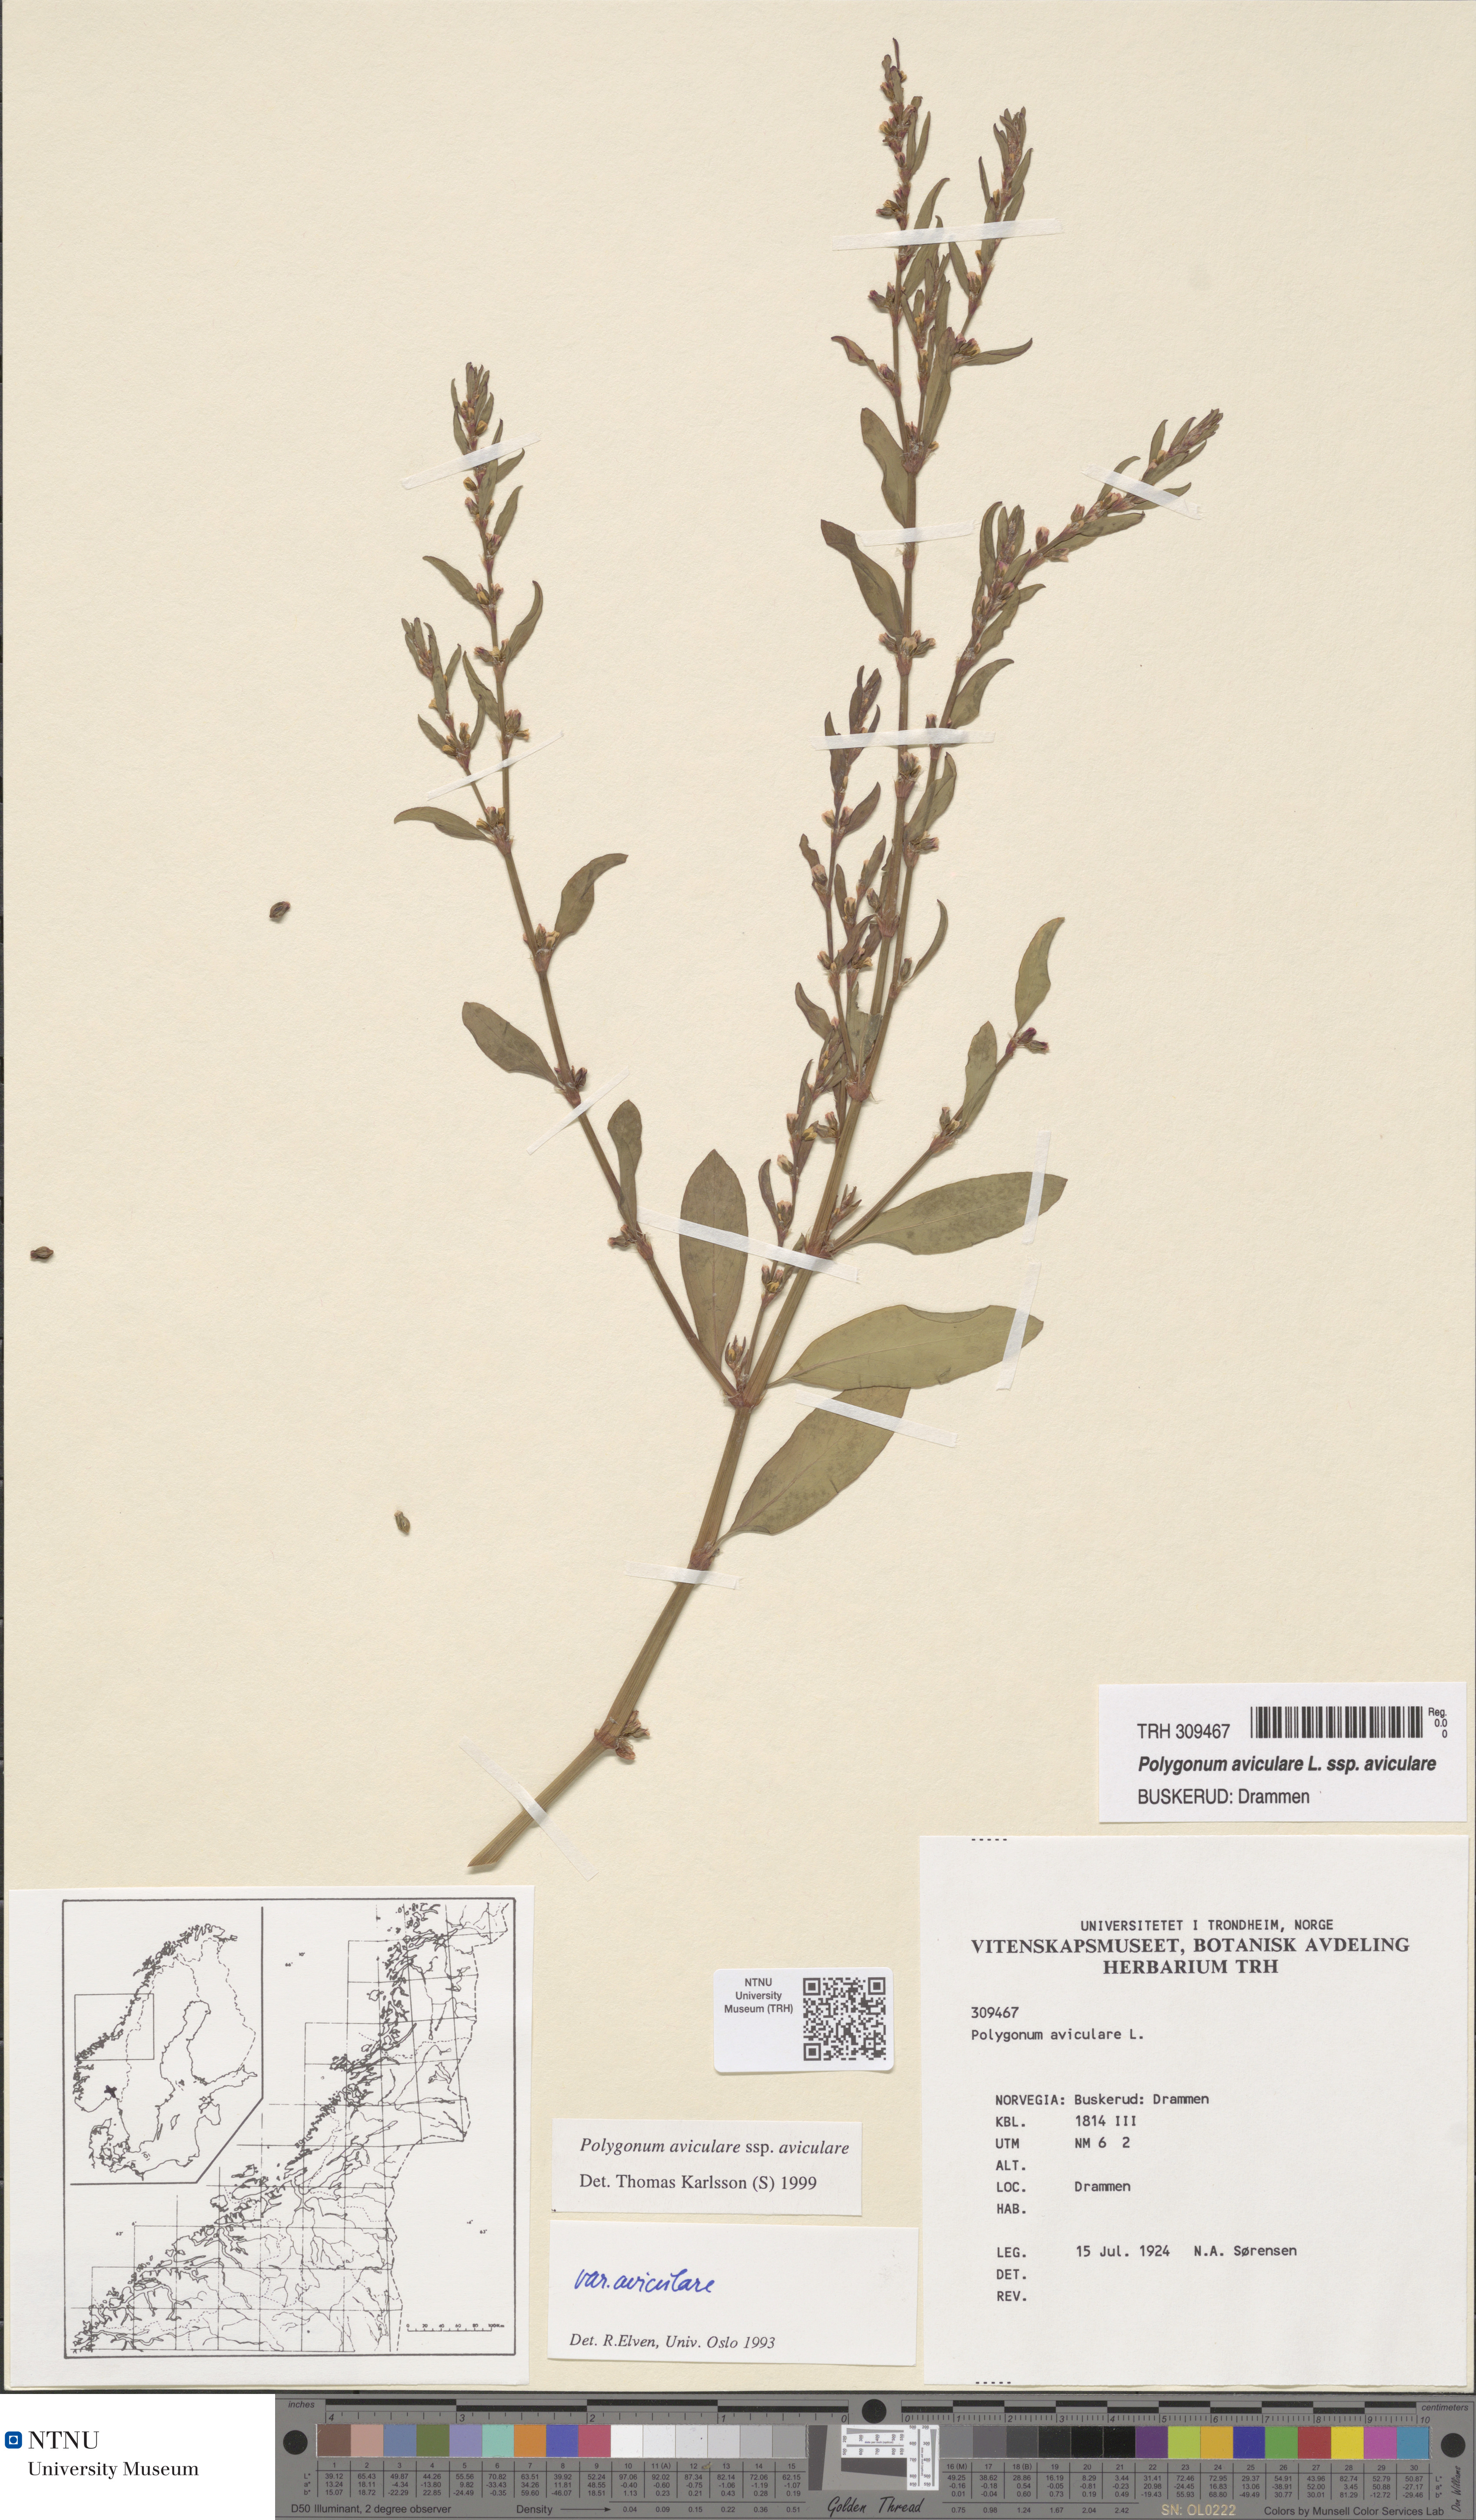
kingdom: Plantae
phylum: Tracheophyta
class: Magnoliopsida
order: Caryophyllales
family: Polygonaceae
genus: Polygonum
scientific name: Polygonum aviculare
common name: Prostrate knotweed
